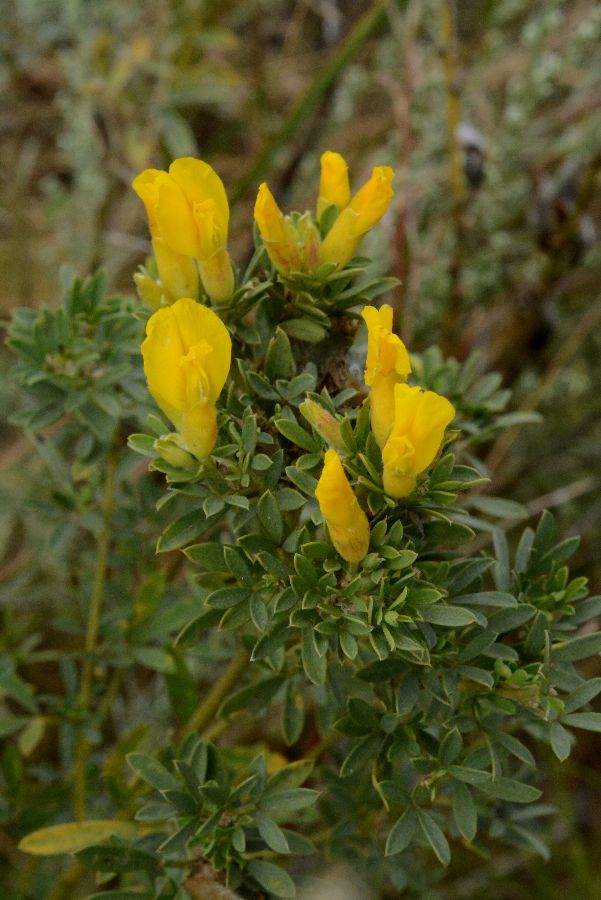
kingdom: Plantae
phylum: Tracheophyta
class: Magnoliopsida
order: Fabales
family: Fabaceae
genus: Chamaecytisus
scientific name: Chamaecytisus austriacus
